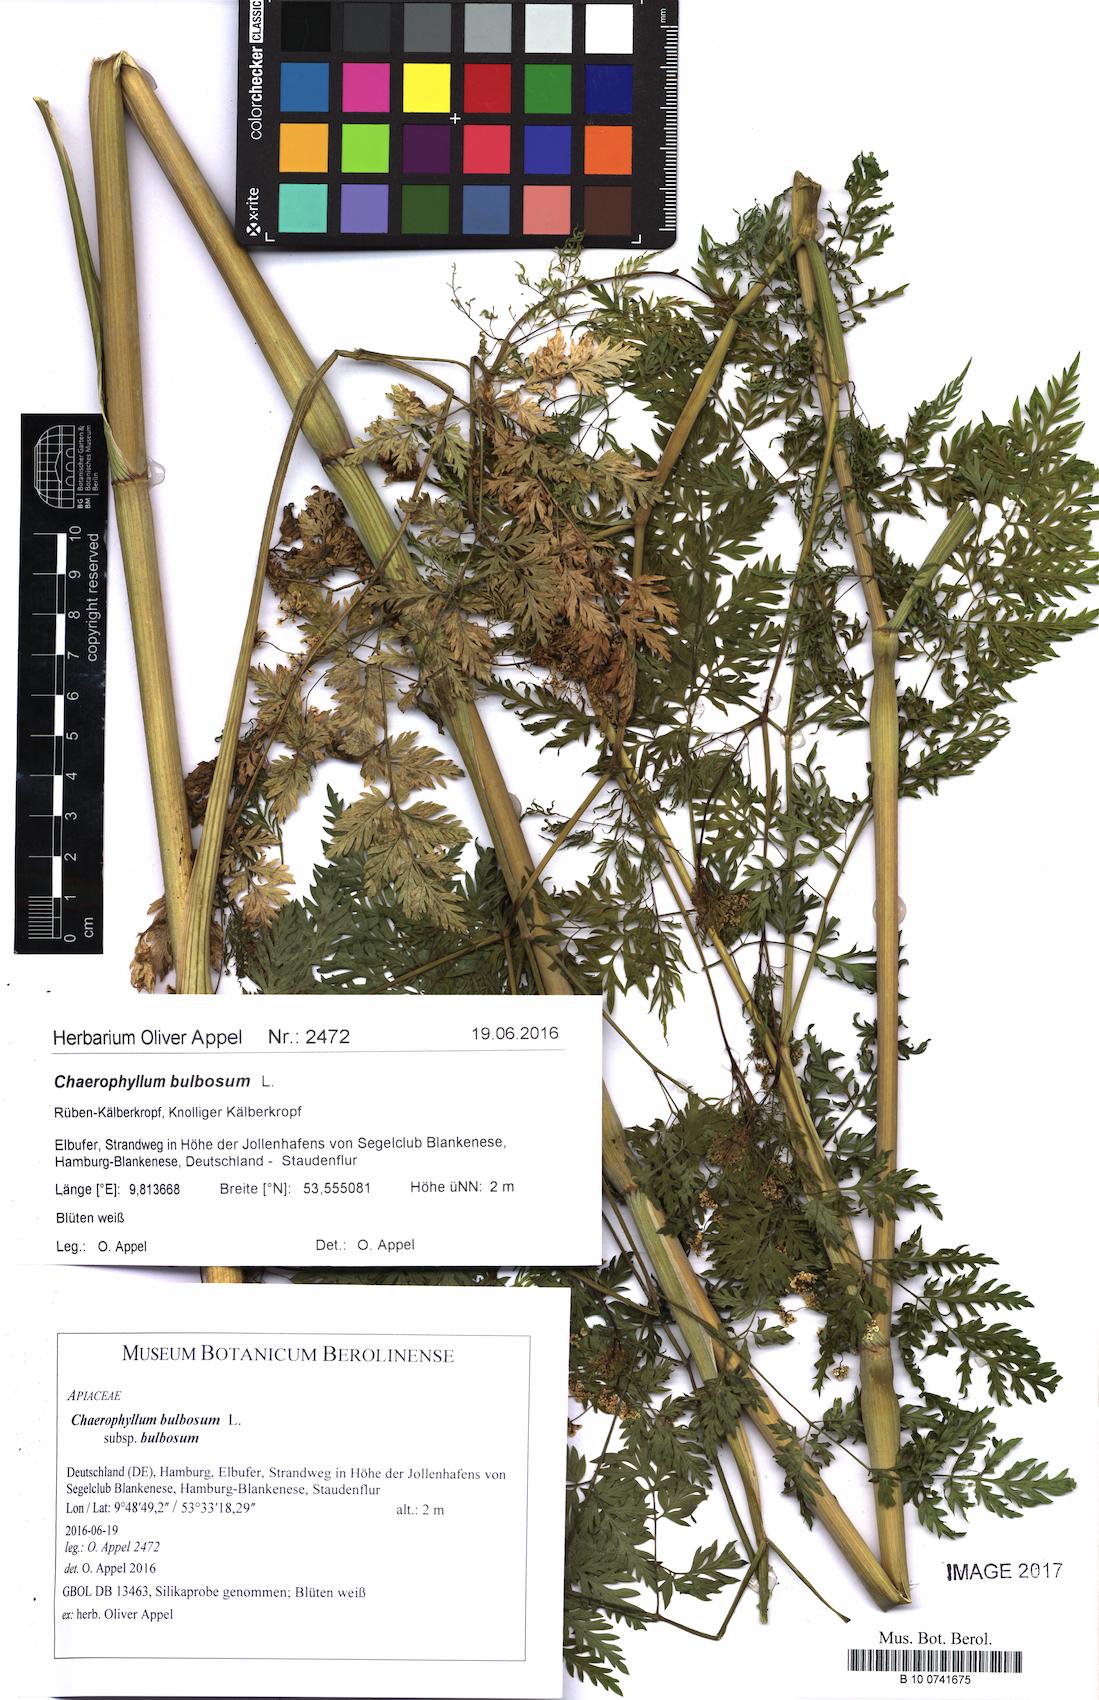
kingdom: Plantae
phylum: Tracheophyta
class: Magnoliopsida
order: Apiales
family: Apiaceae
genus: Chaerophyllum
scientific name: Chaerophyllum bulbosum
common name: Bulbous chervil
